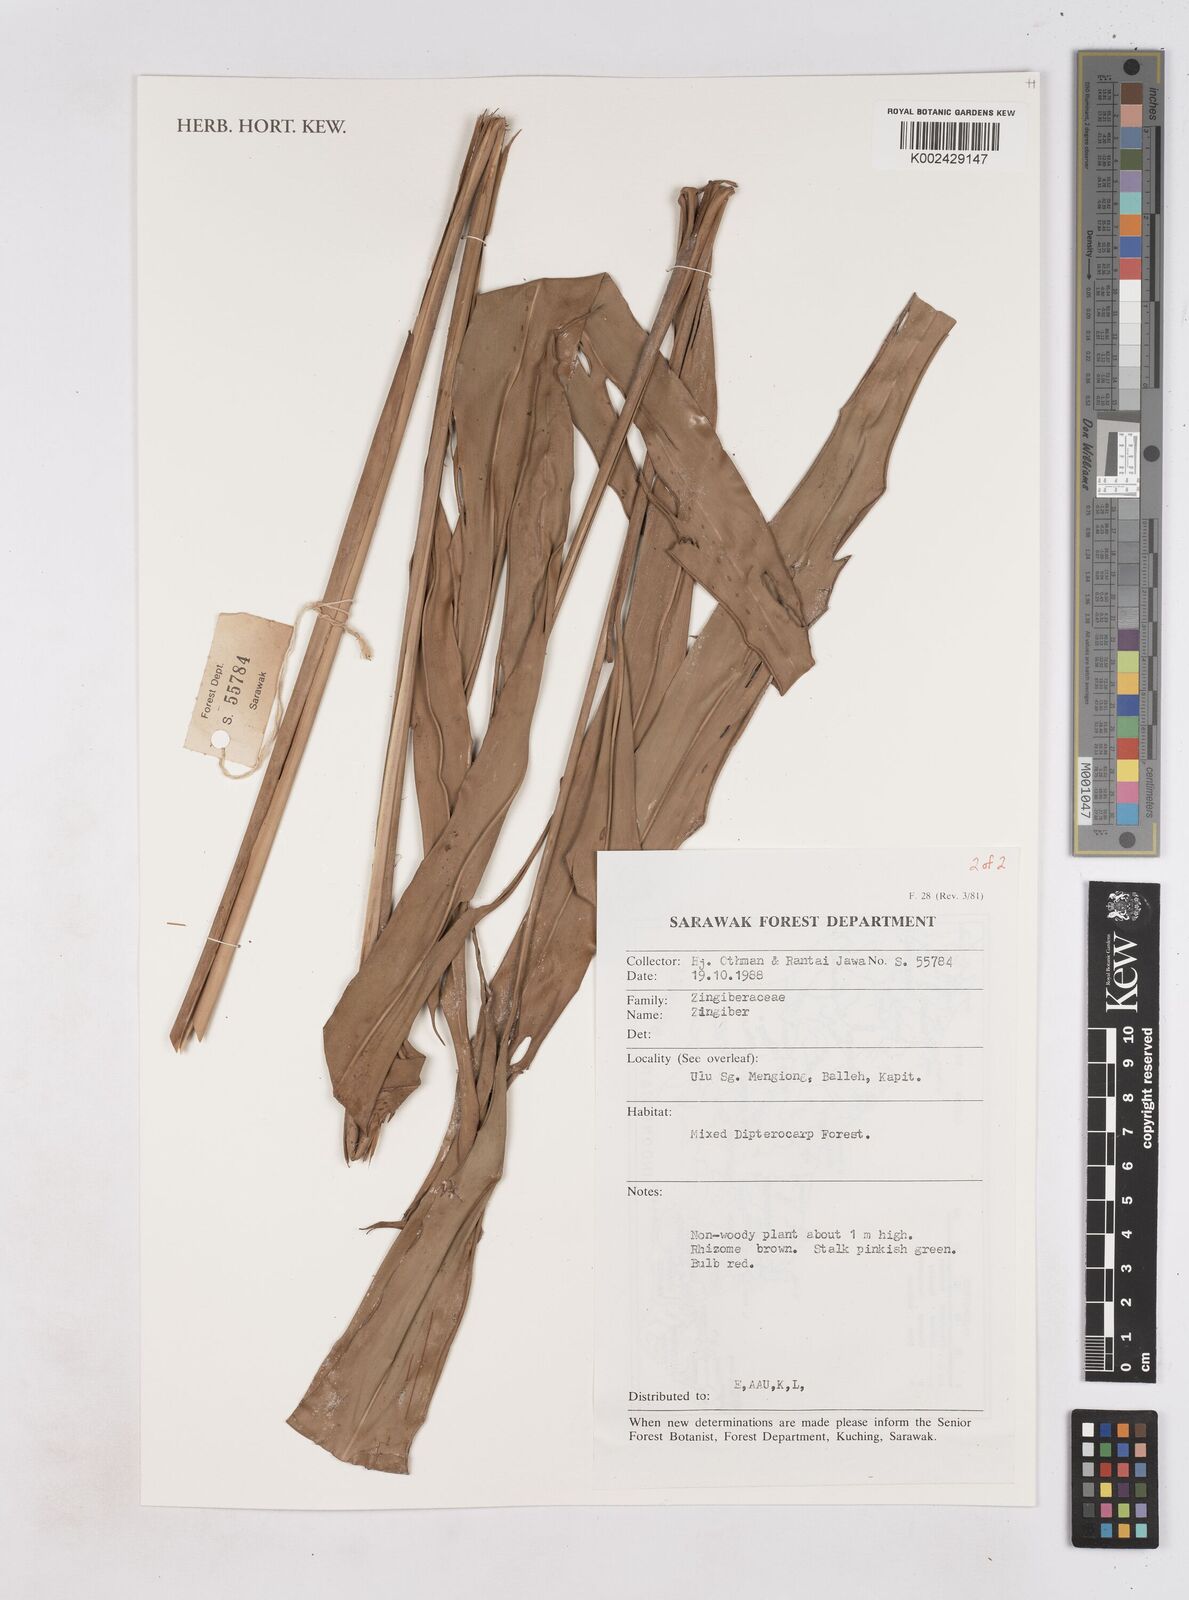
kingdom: Plantae
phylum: Tracheophyta
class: Liliopsida
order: Zingiberales
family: Zingiberaceae
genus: Zingiber
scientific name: Zingiber
